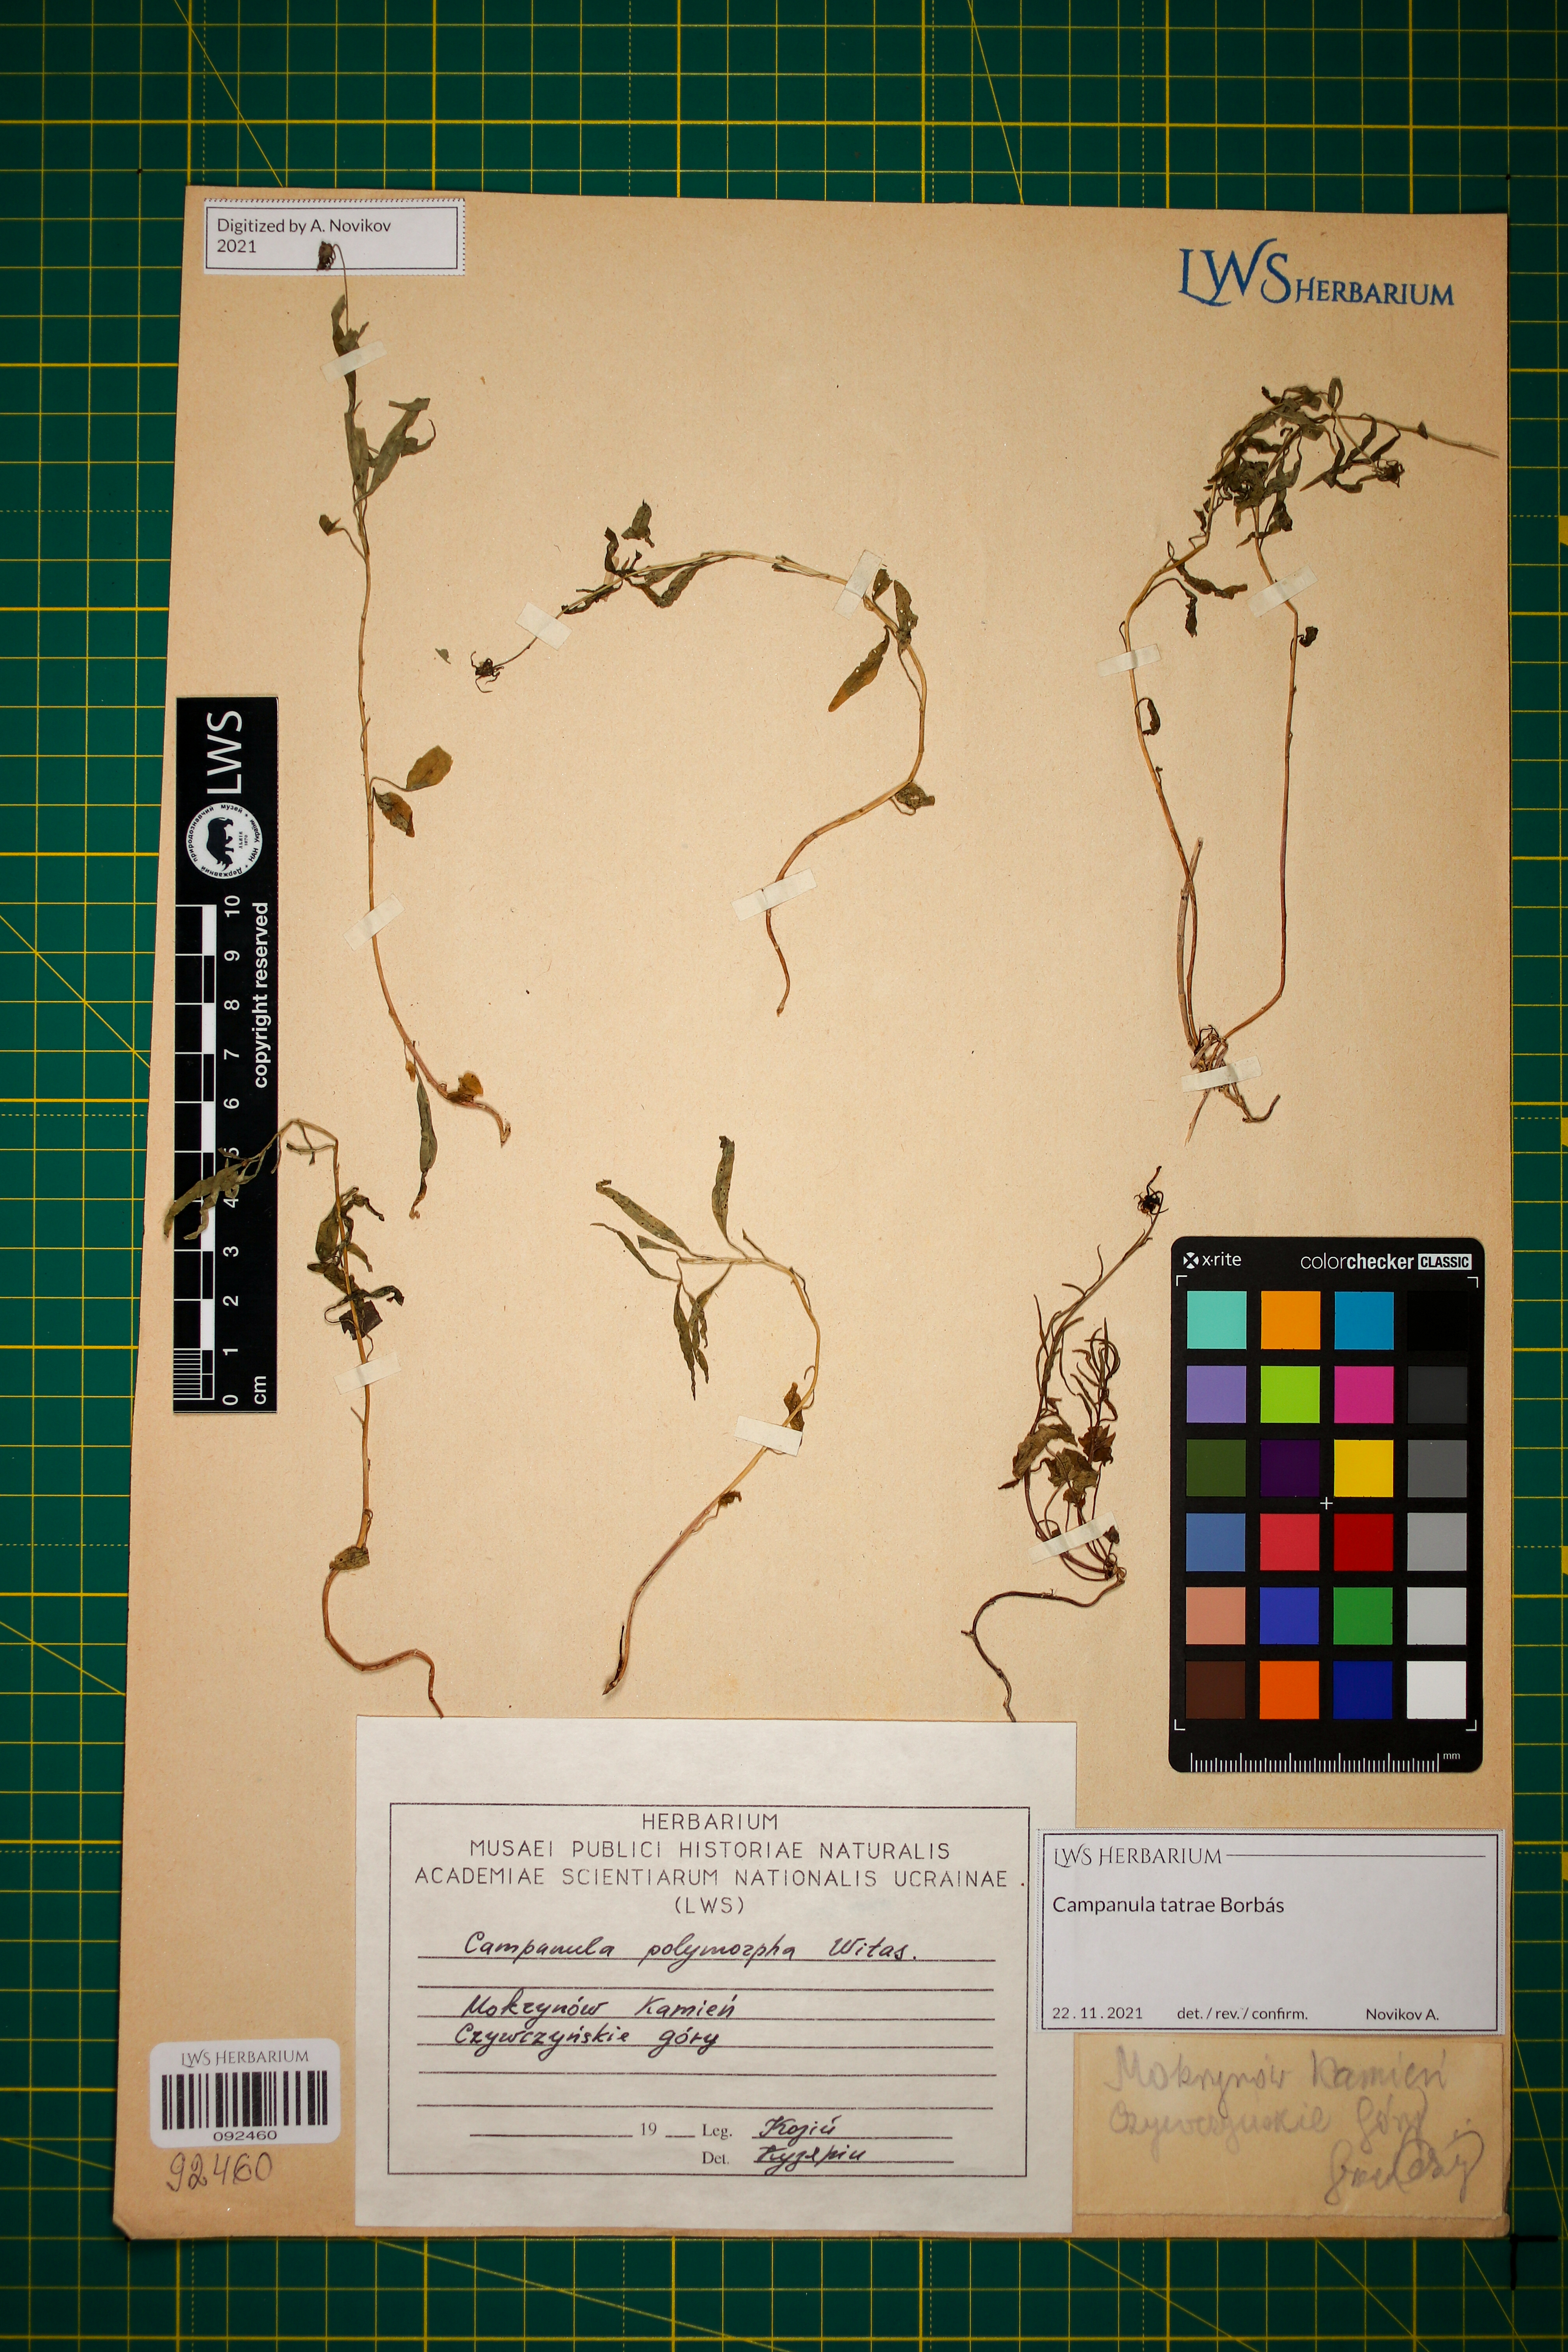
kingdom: Plantae
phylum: Tracheophyta
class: Magnoliopsida
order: Asterales
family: Campanulaceae
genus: Campanula
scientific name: Campanula tatrae
